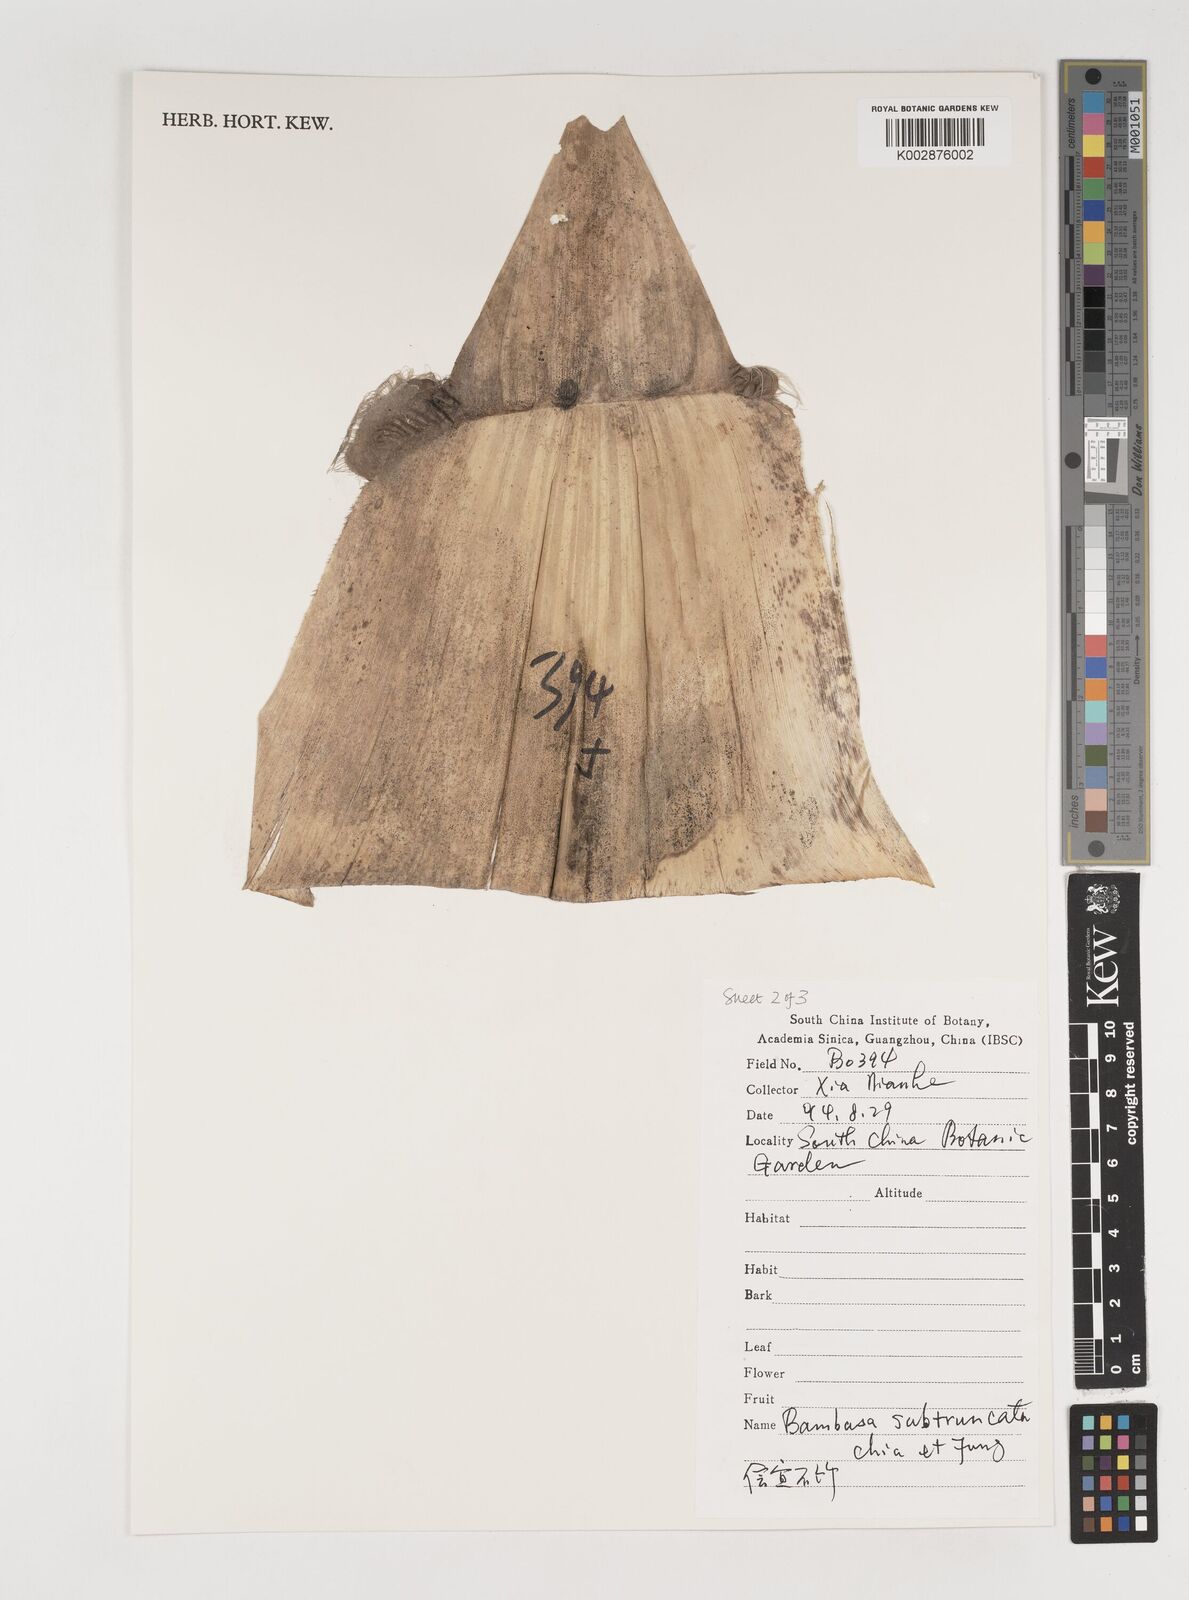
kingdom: Plantae
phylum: Tracheophyta
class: Liliopsida
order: Poales
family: Poaceae
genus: Bambusa
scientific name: Bambusa subtruncata
